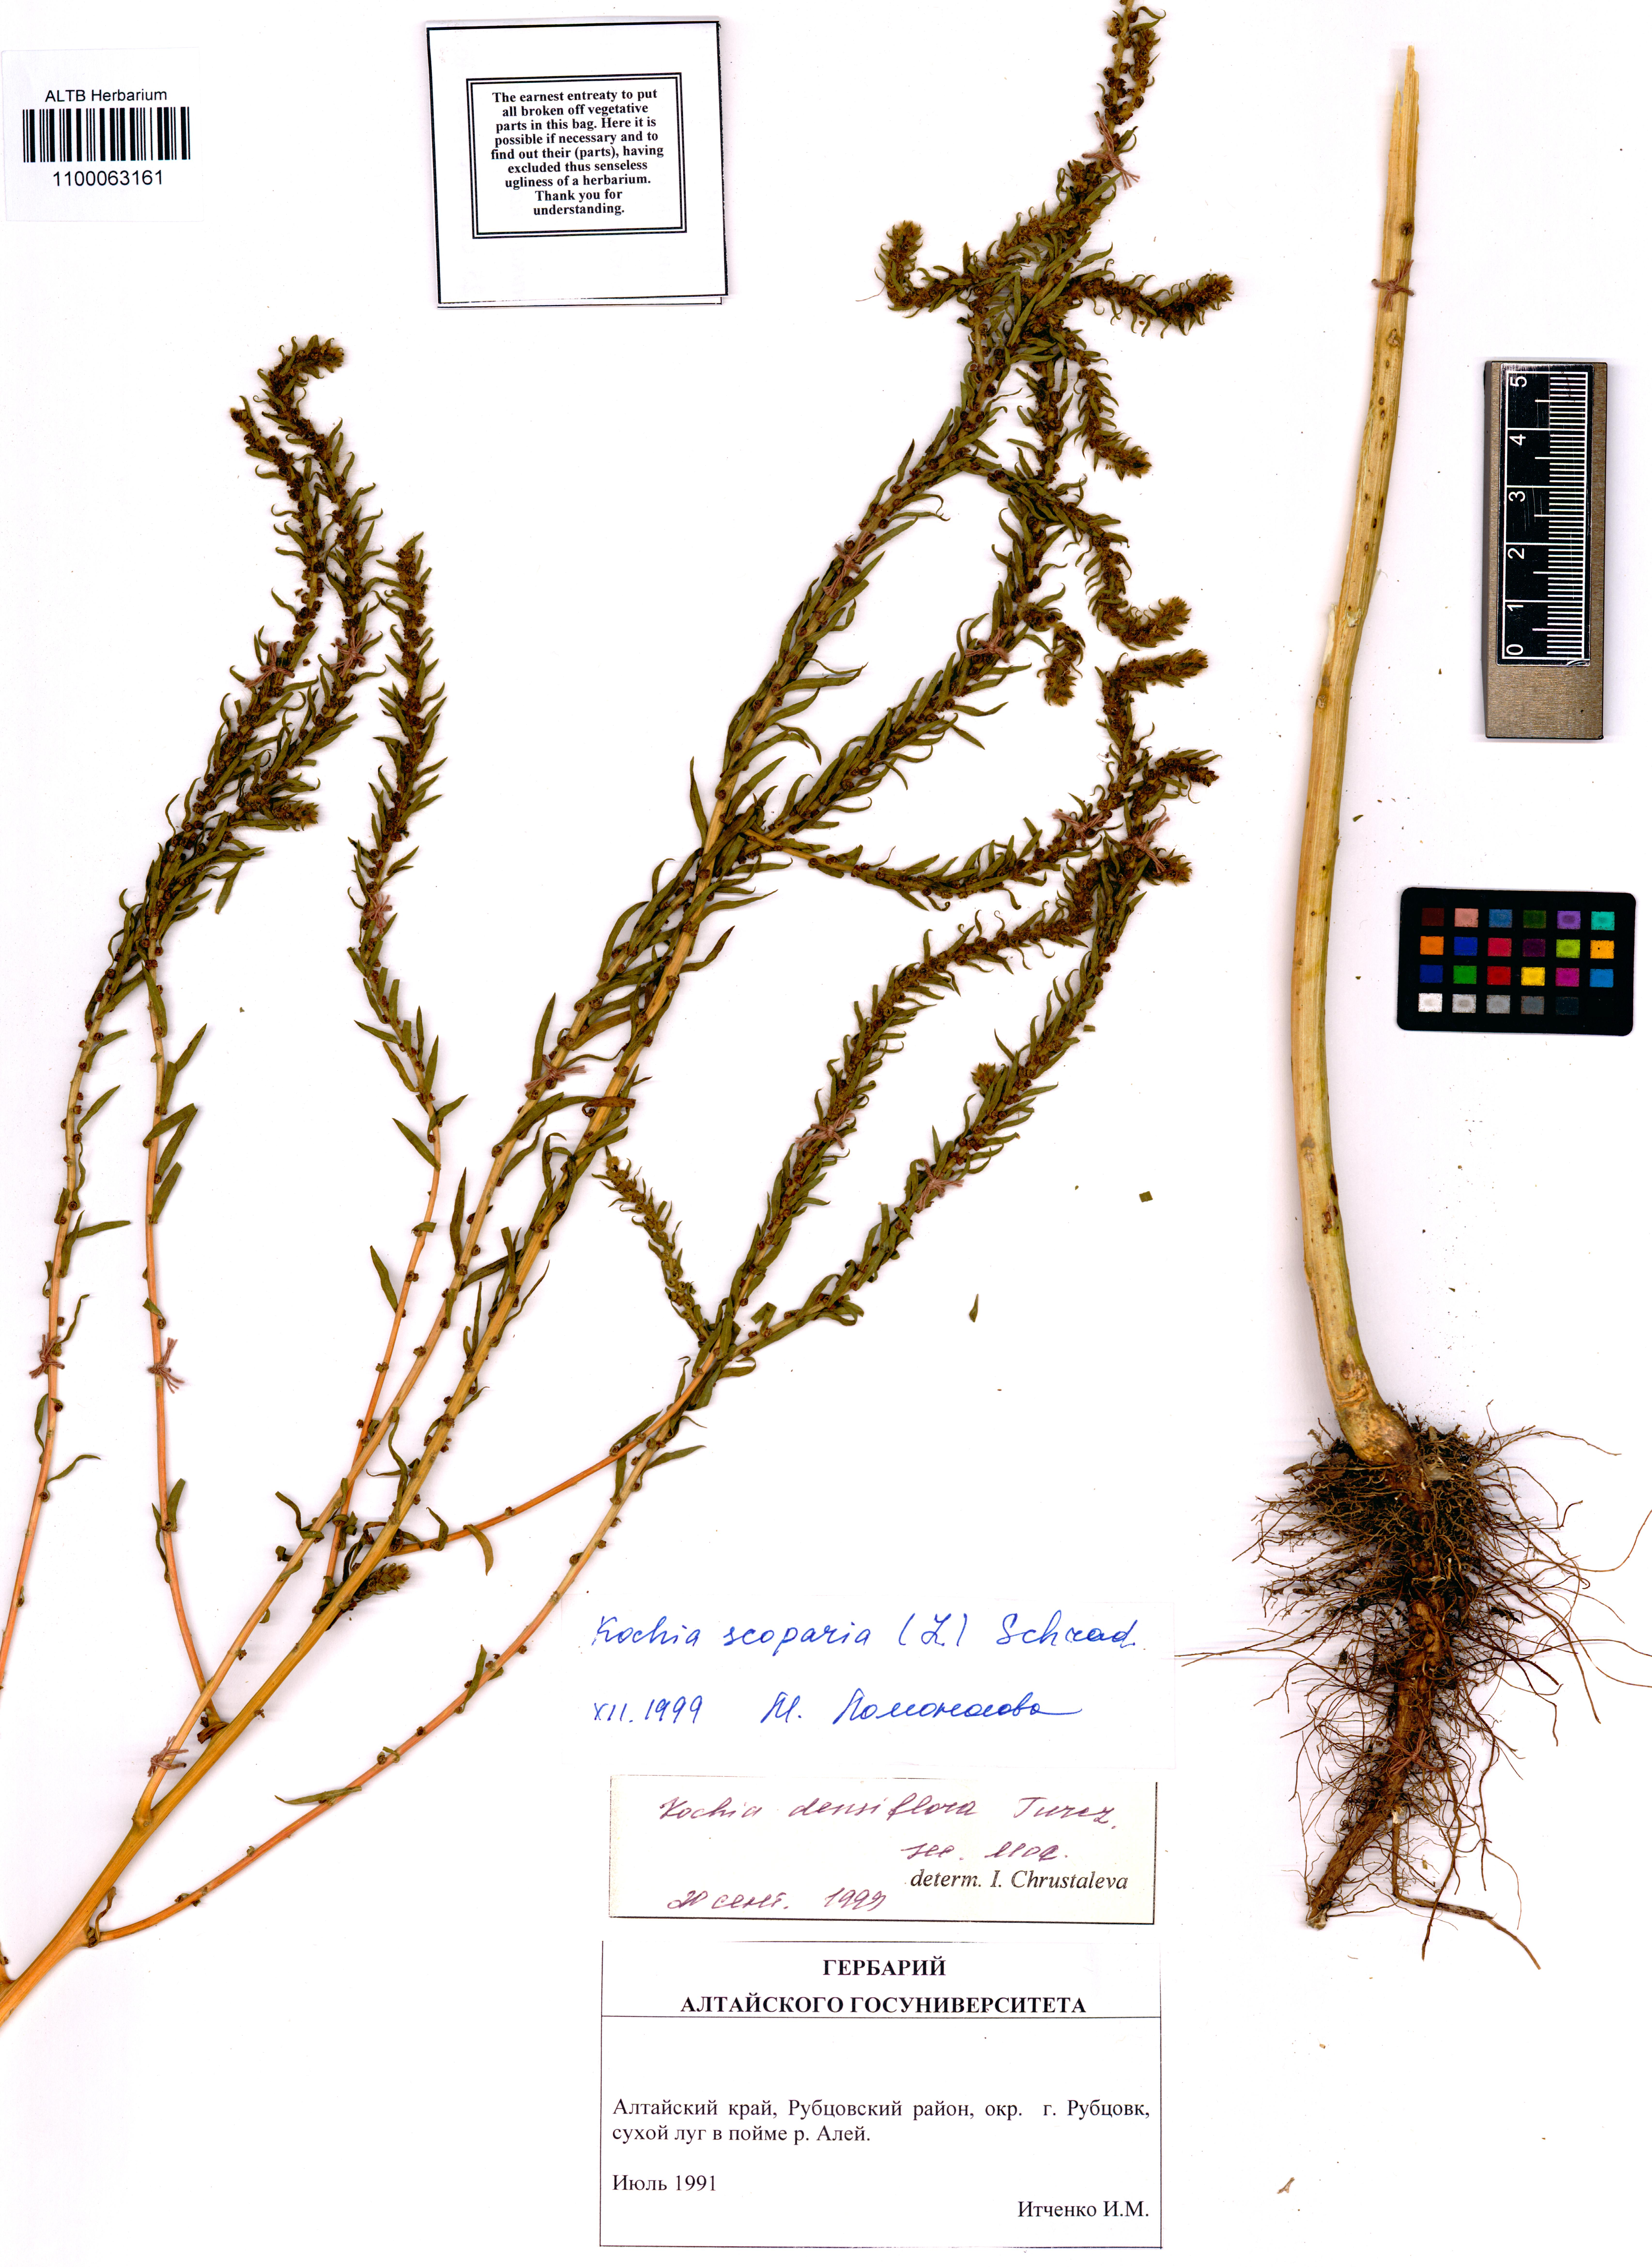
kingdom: Plantae
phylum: Tracheophyta
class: Magnoliopsida
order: Caryophyllales
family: Amaranthaceae
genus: Bassia
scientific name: Bassia scoparia
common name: Belvedere
